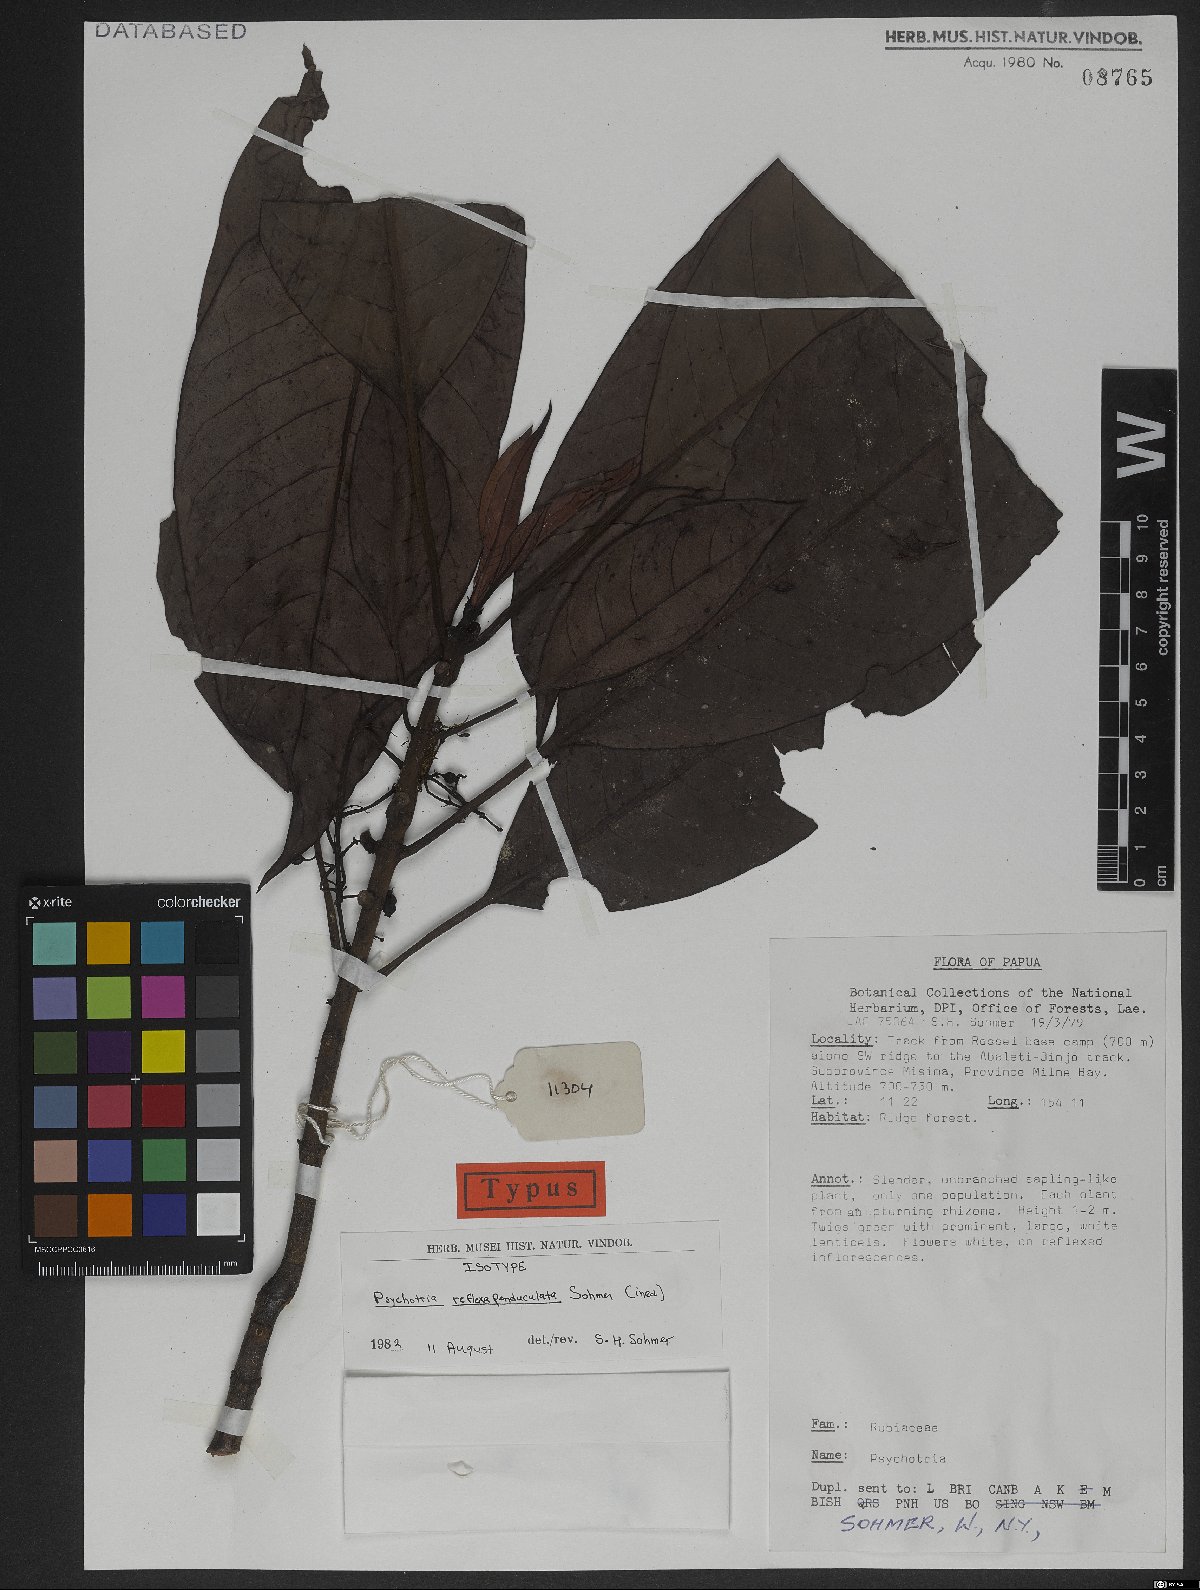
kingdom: Plantae
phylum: Tracheophyta
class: Magnoliopsida
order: Gentianales
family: Rubiaceae
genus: Psychotria
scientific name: Psychotria reflexapedunculata
